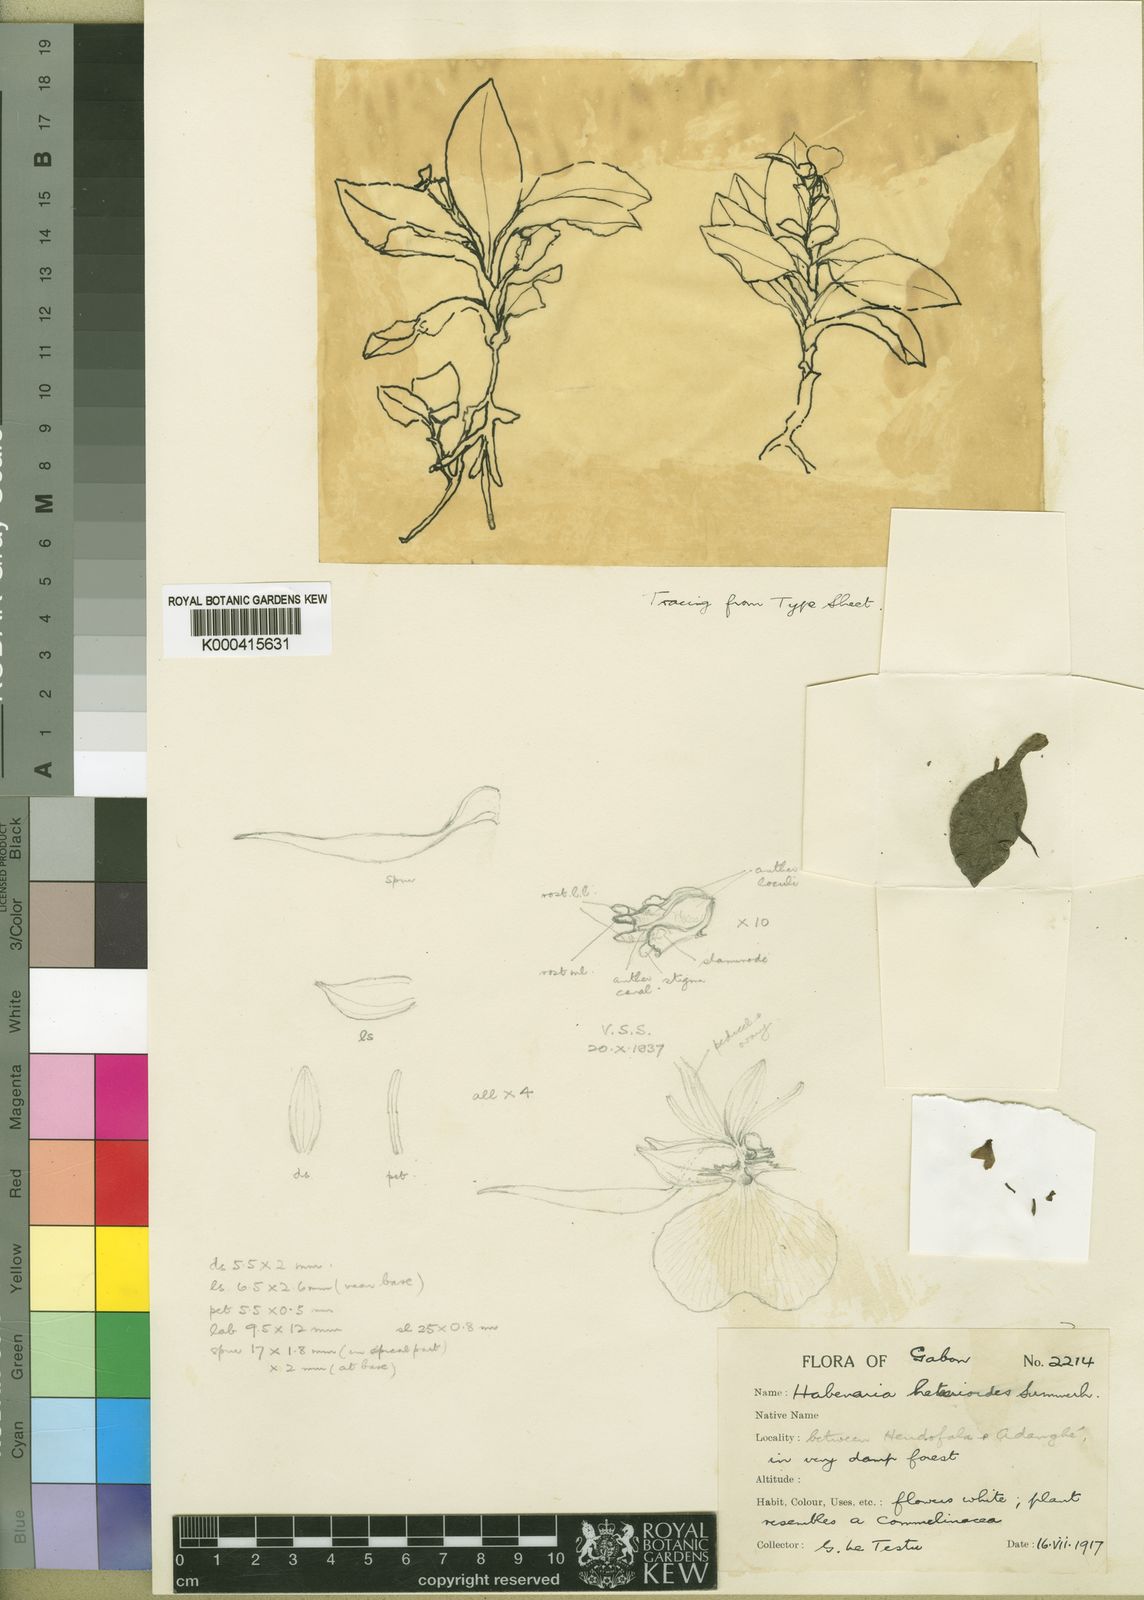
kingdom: Plantae
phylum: Tracheophyta
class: Liliopsida
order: Asparagales
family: Orchidaceae
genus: Veyretella
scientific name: Veyretella hetaerioides
